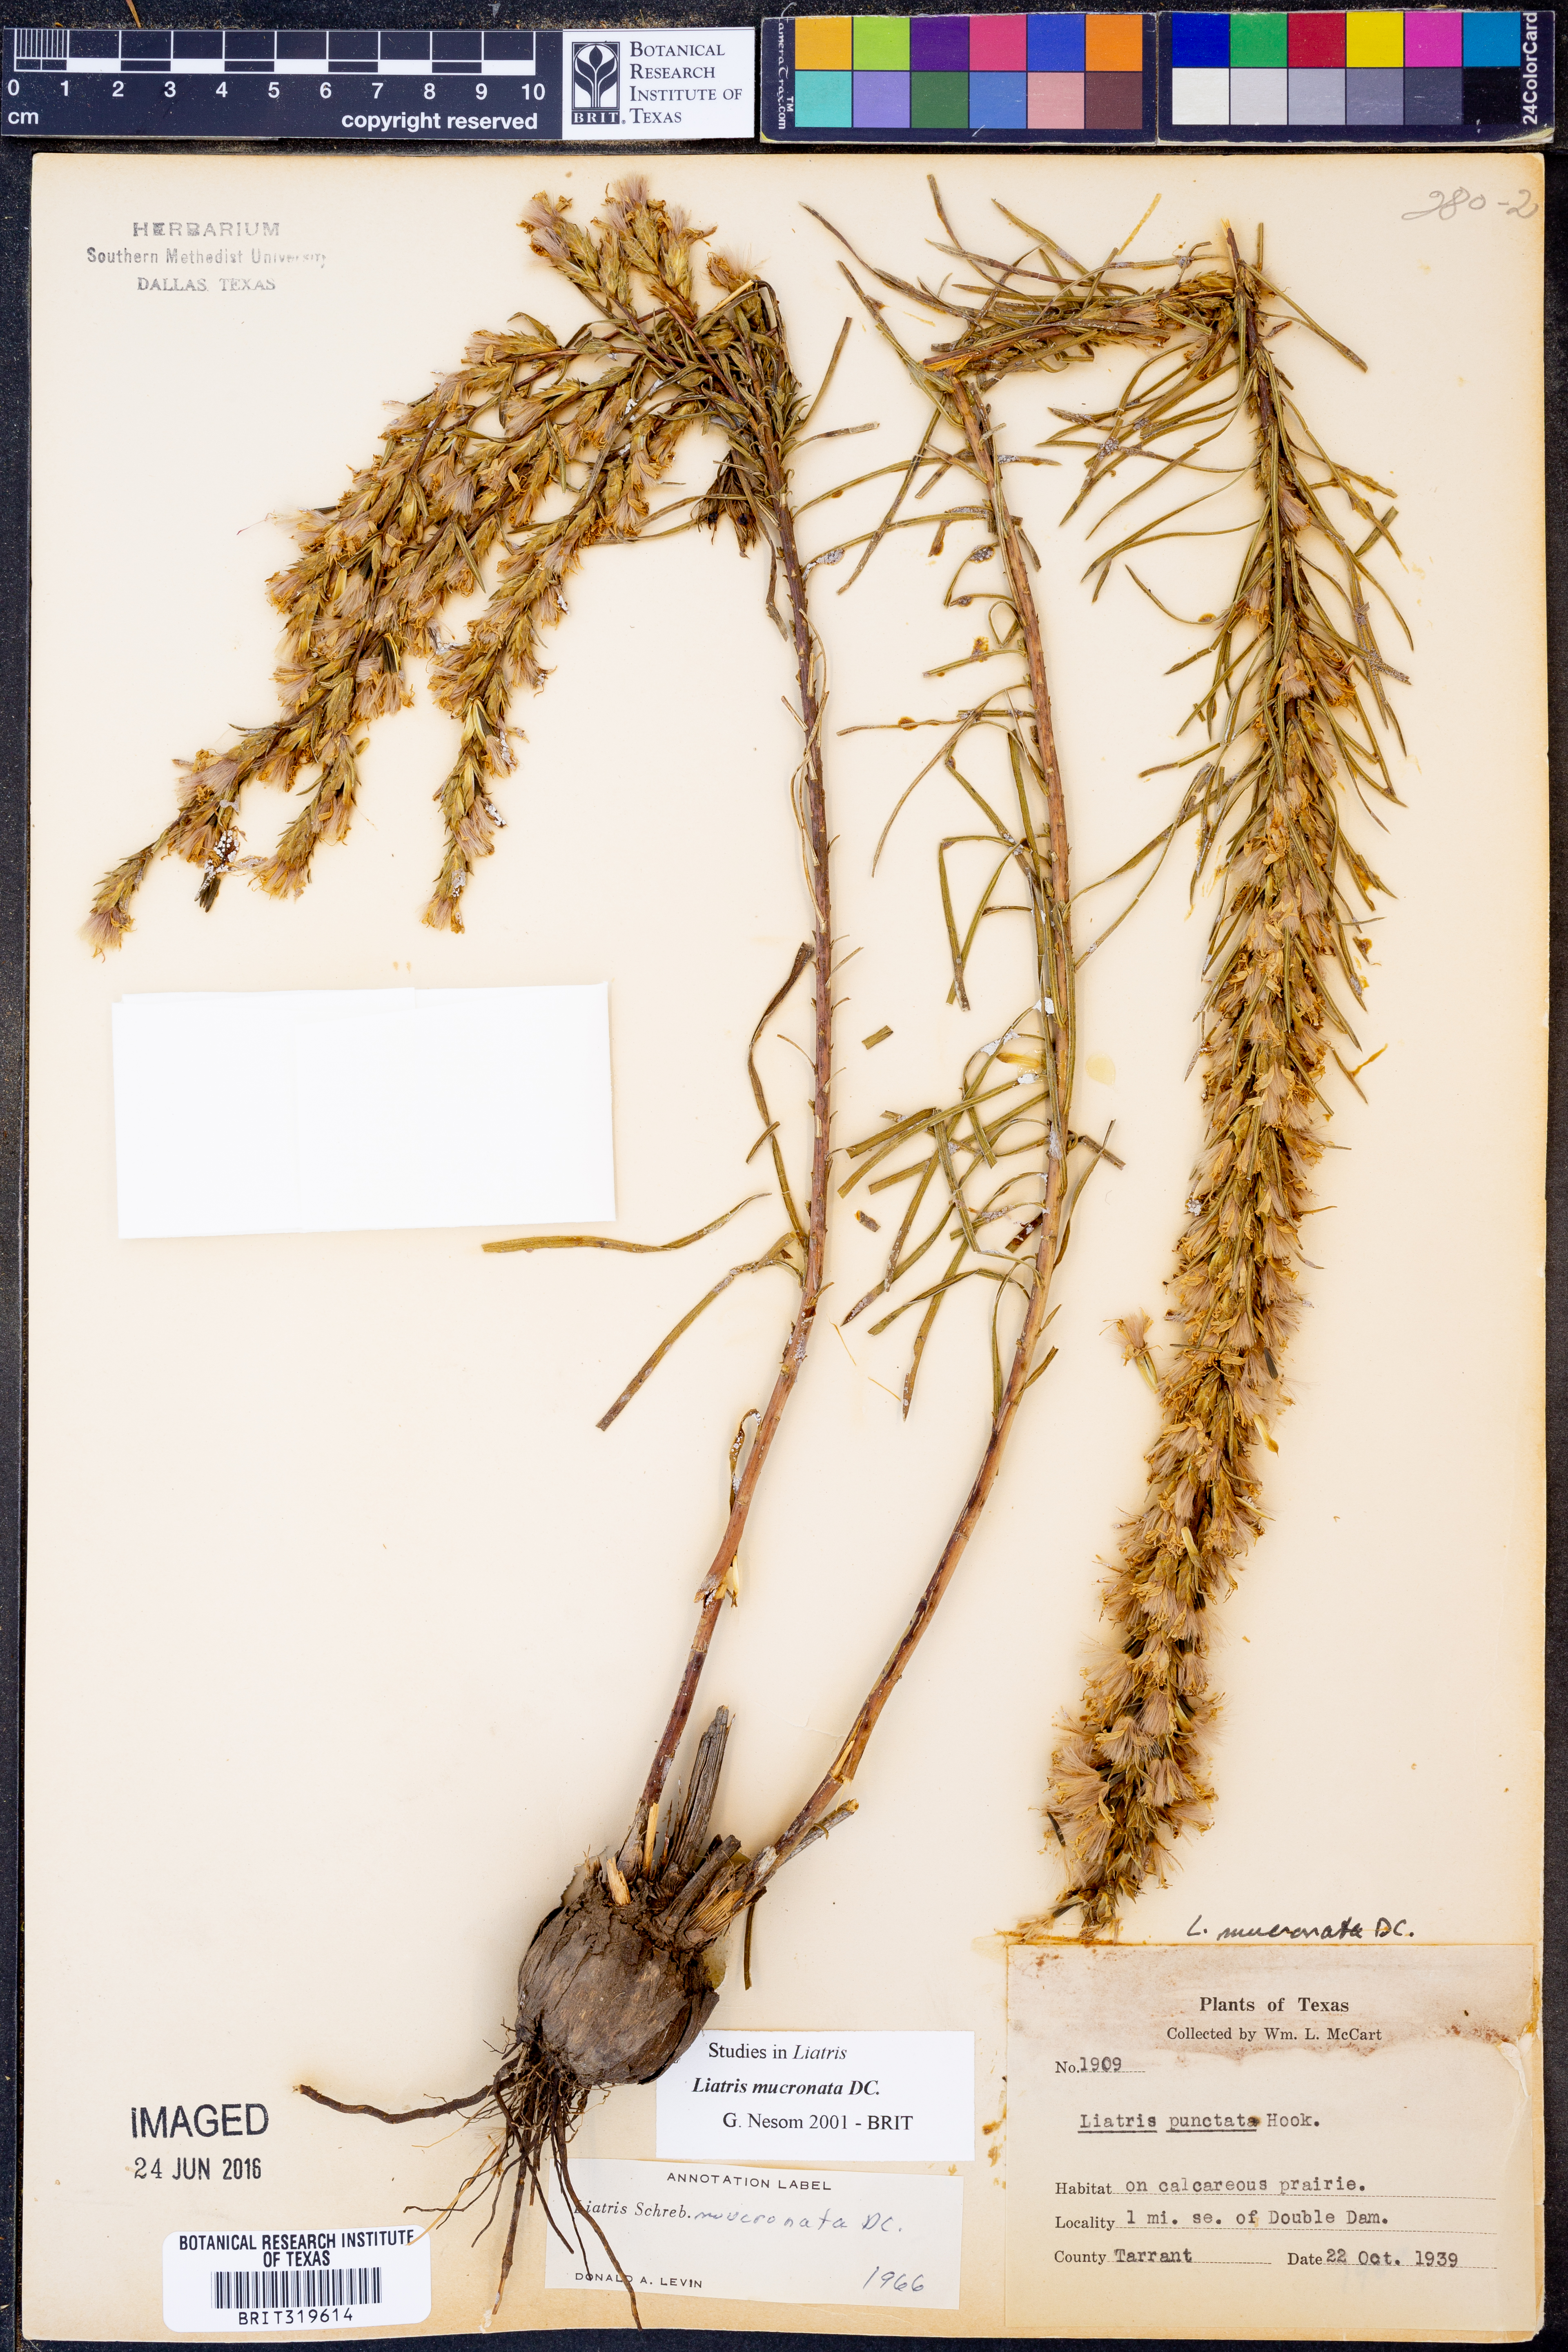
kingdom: Plantae
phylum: Tracheophyta
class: Magnoliopsida
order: Asterales
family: Asteraceae
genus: Liatris
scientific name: Liatris mucronata
